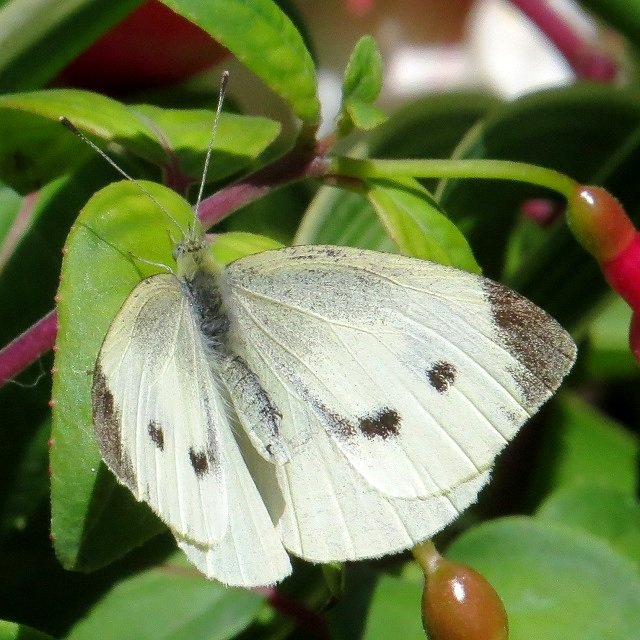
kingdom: Animalia
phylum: Arthropoda
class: Insecta
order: Lepidoptera
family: Pieridae
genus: Pieris
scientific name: Pieris rapae
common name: Cabbage White
